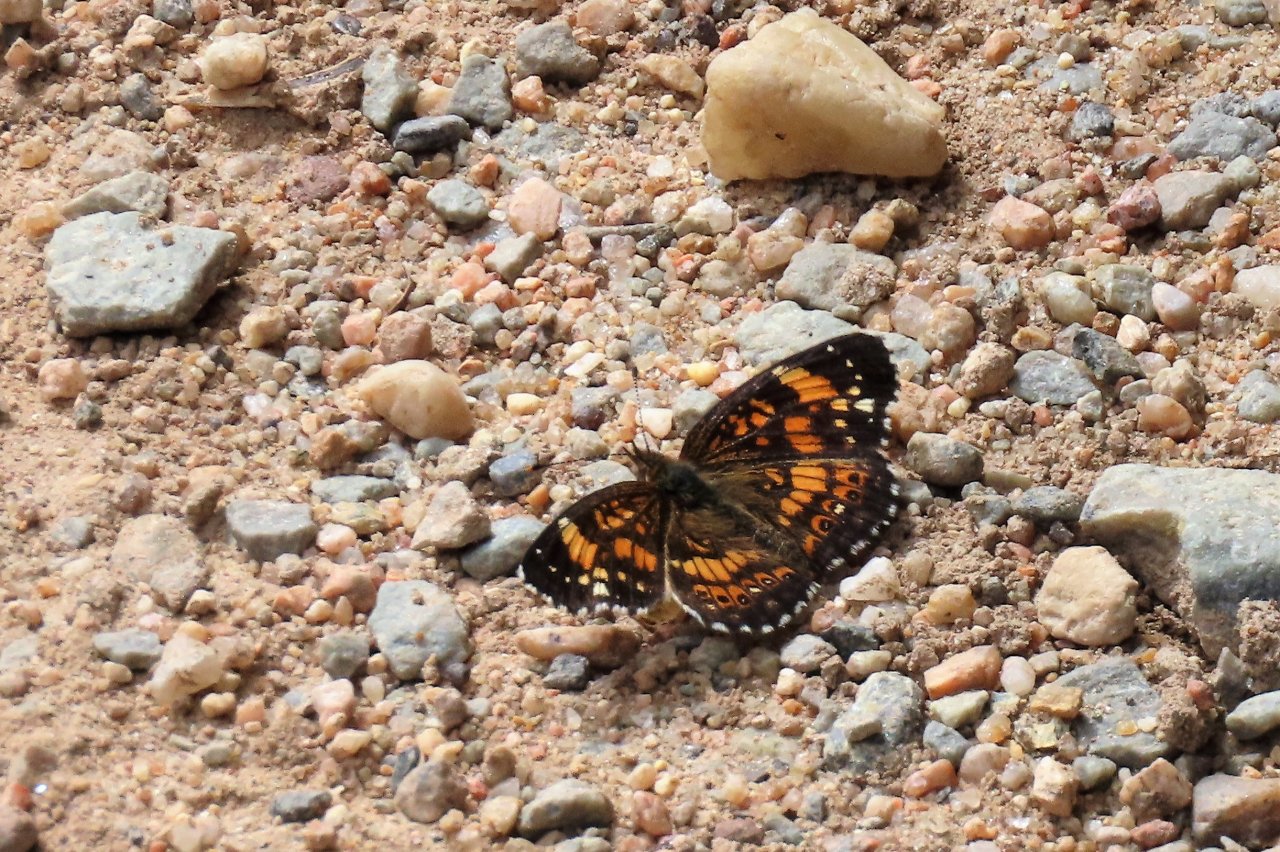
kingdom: Animalia
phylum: Arthropoda
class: Insecta
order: Lepidoptera
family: Nymphalidae
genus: Chlosyne
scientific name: Chlosyne nycteis
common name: Silvery Checkerspot
